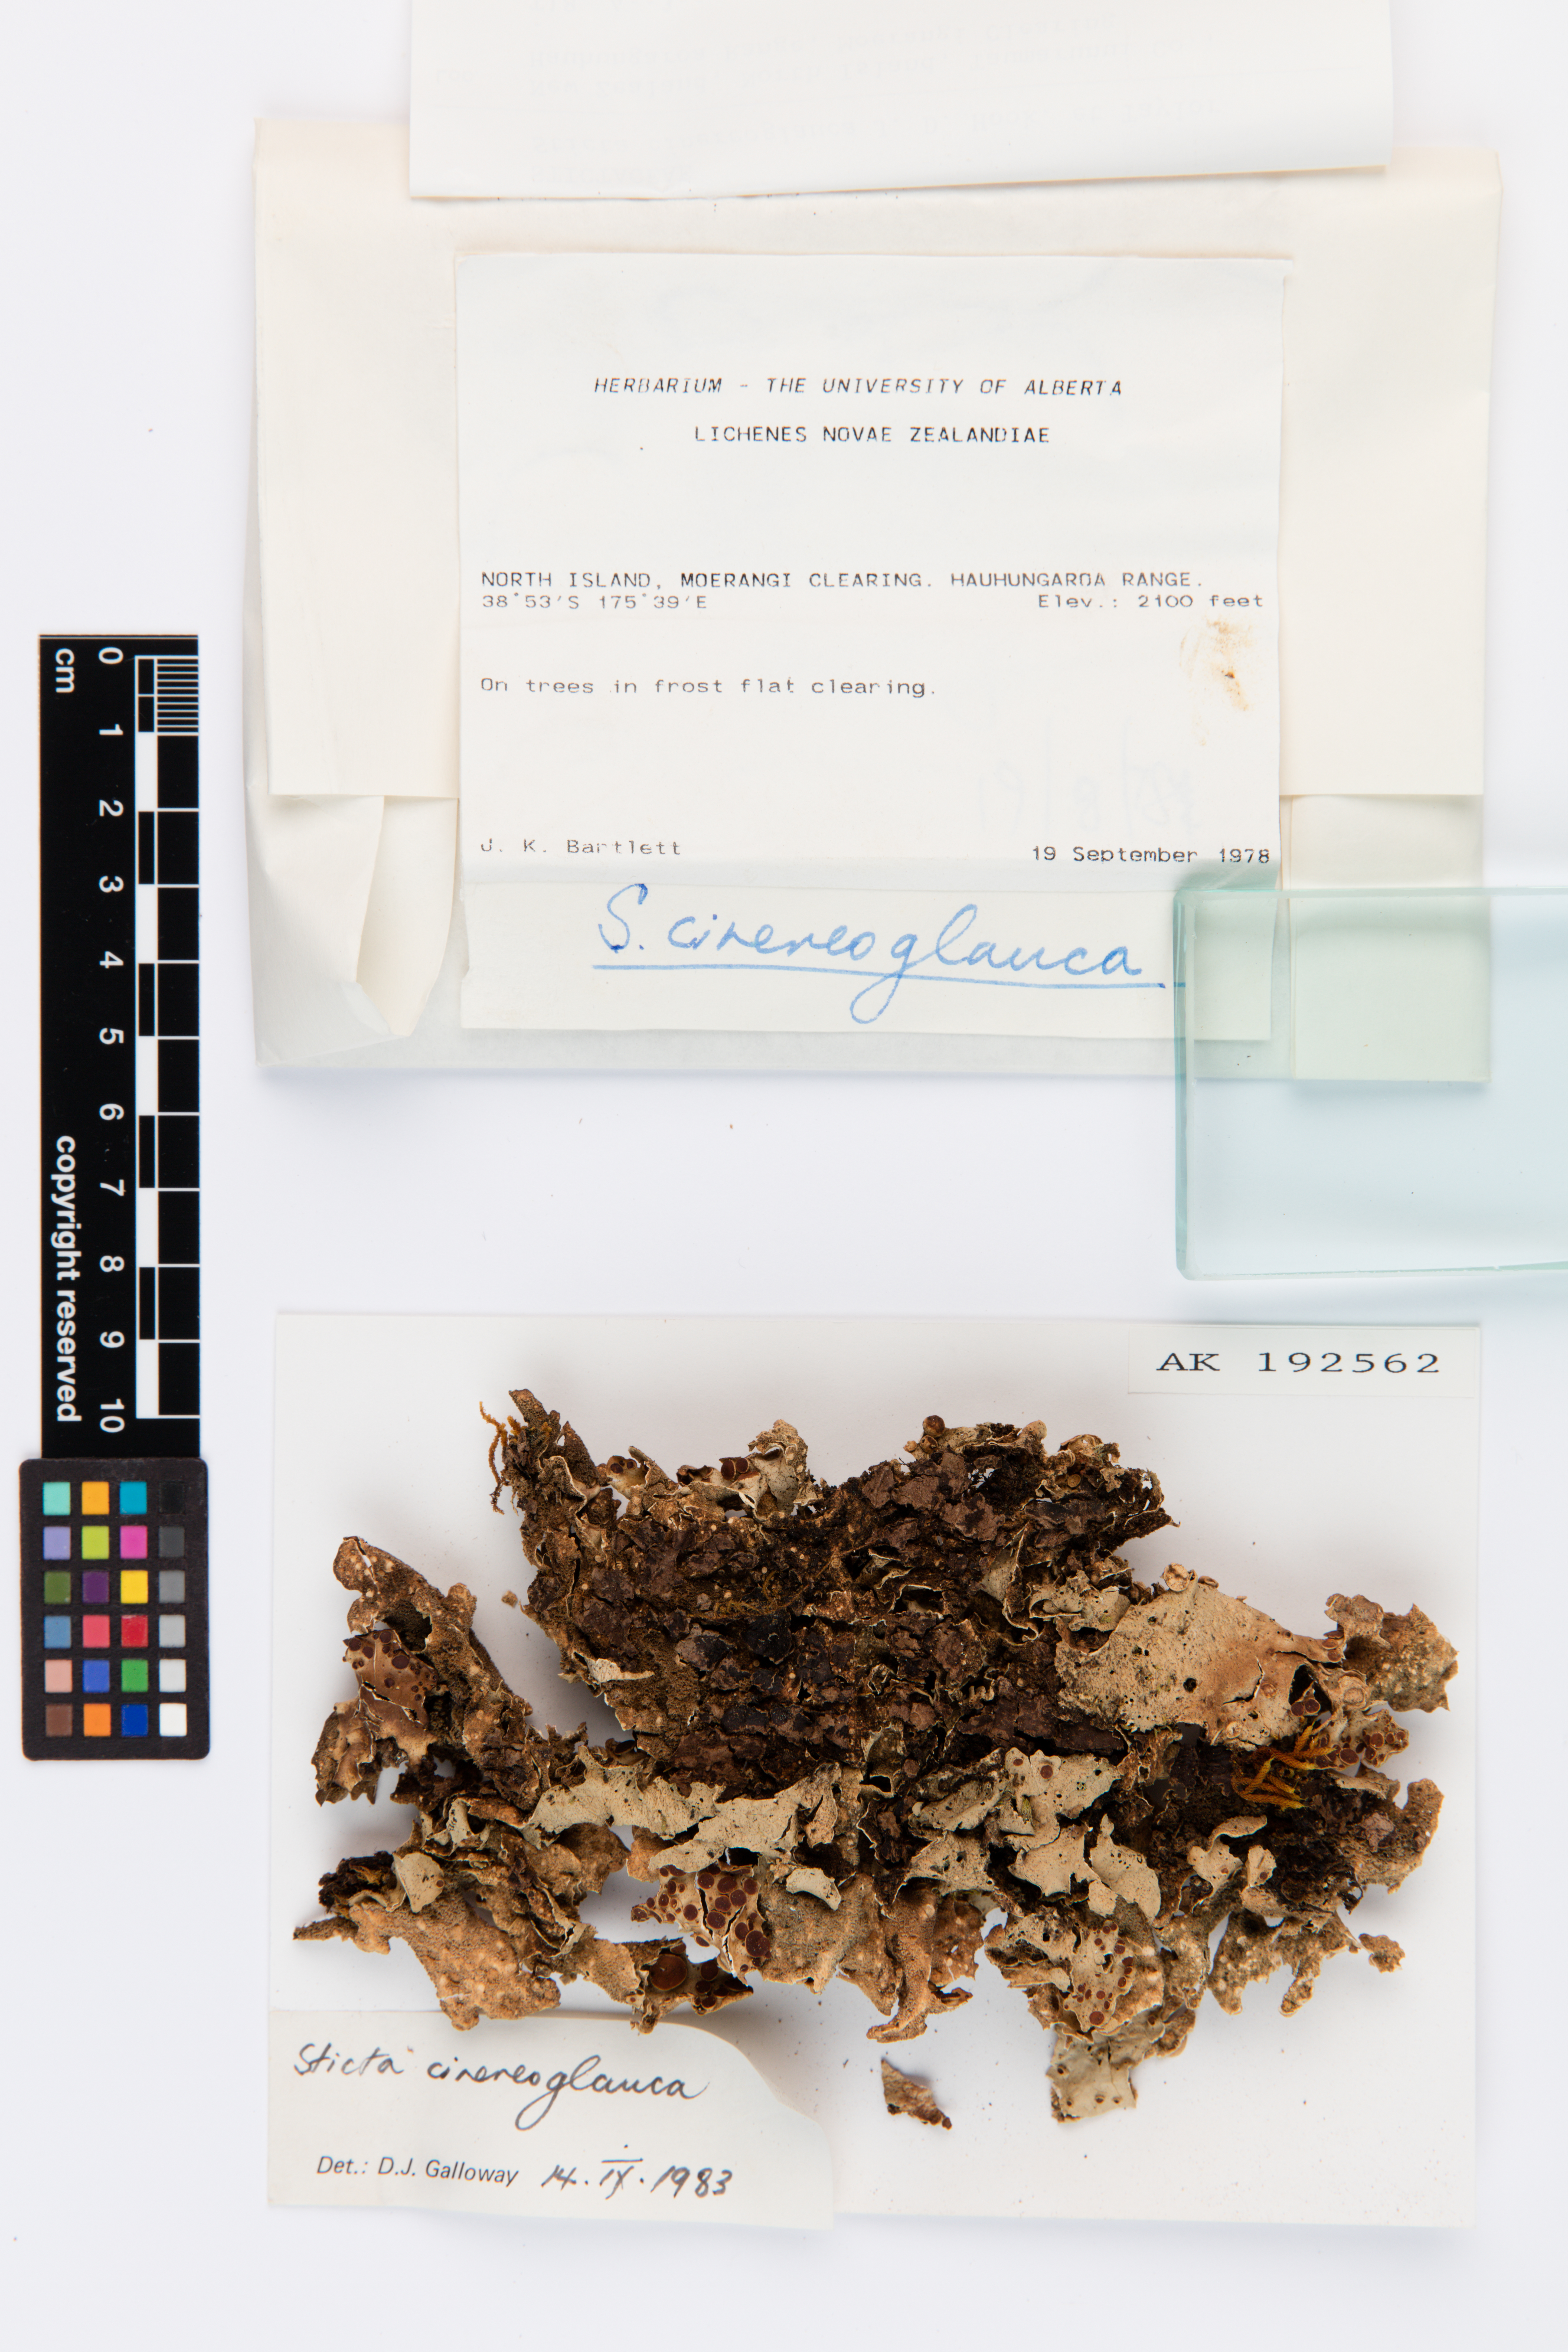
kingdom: Fungi
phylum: Ascomycota
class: Lecanoromycetes
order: Peltigerales
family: Lobariaceae
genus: Sticta
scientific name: Sticta cinereoglauca
